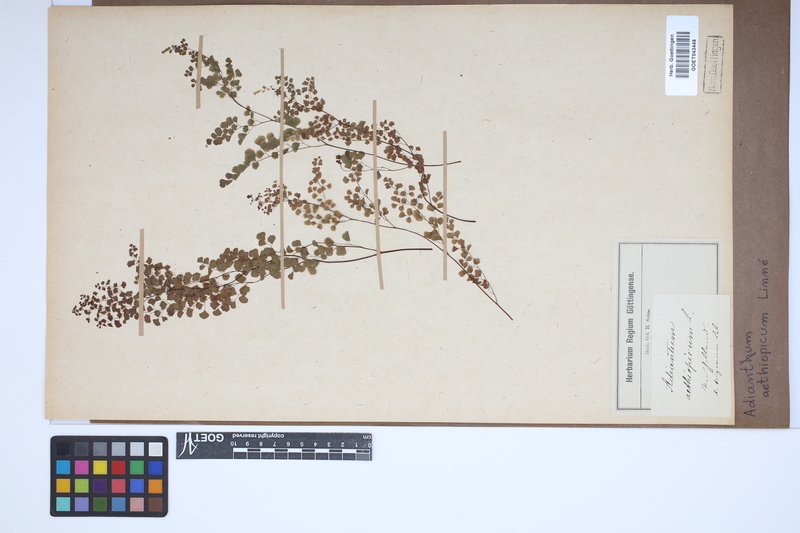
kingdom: Plantae
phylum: Tracheophyta
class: Polypodiopsida
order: Polypodiales
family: Pteridaceae
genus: Adiantum
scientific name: Adiantum aethiopicum
